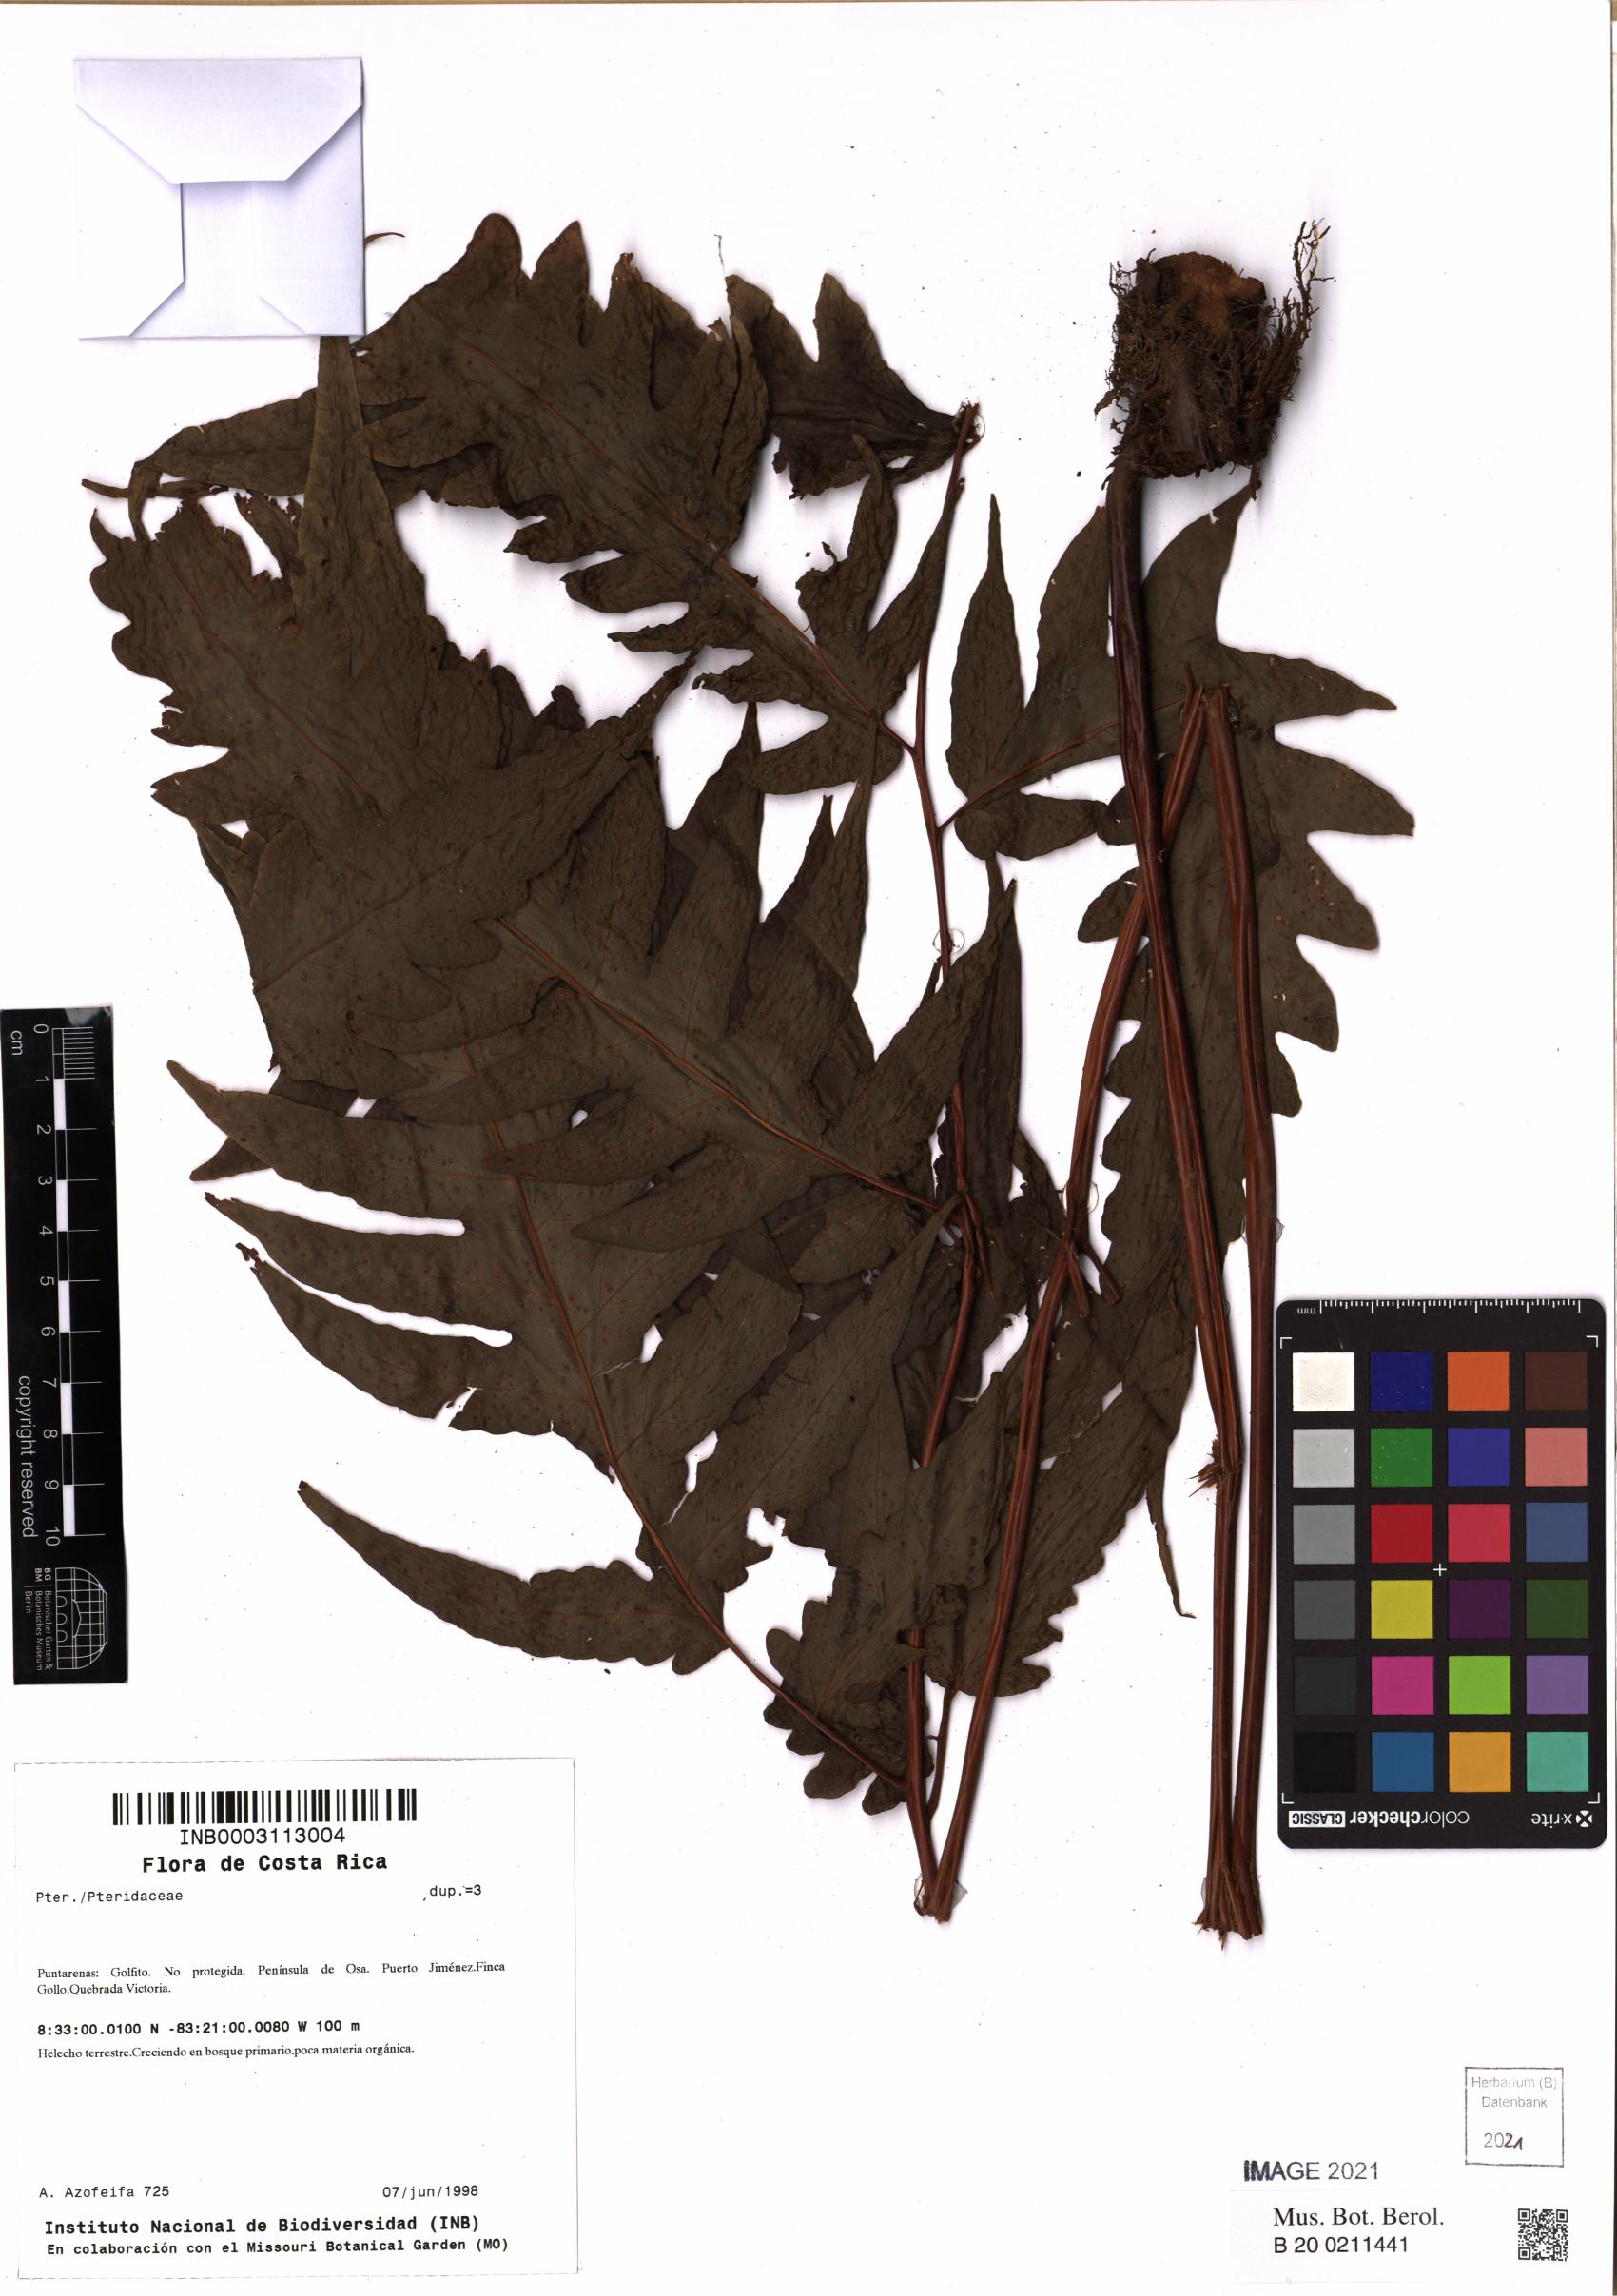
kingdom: Plantae
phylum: Tracheophyta
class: Polypodiopsida
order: Polypodiales
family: Pteridaceae
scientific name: Pteridaceae
